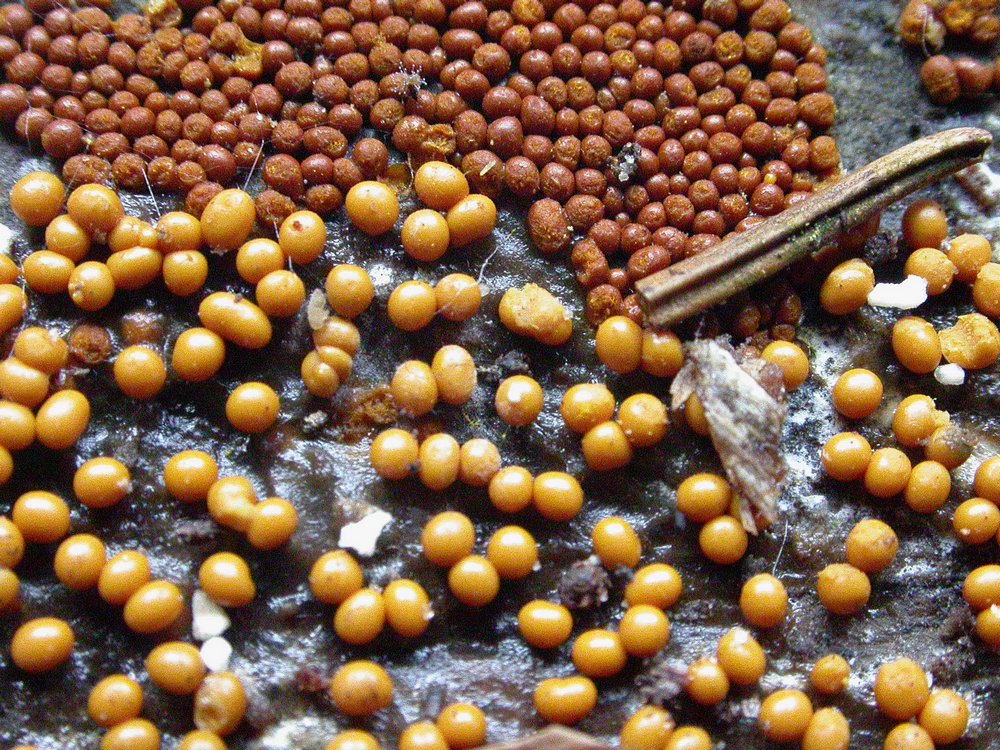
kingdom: Protozoa
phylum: Mycetozoa
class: Myxomycetes
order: Trichiales
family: Trichiaceae
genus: Trichia
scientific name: Trichia scabra
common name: tæppe-hårbold
